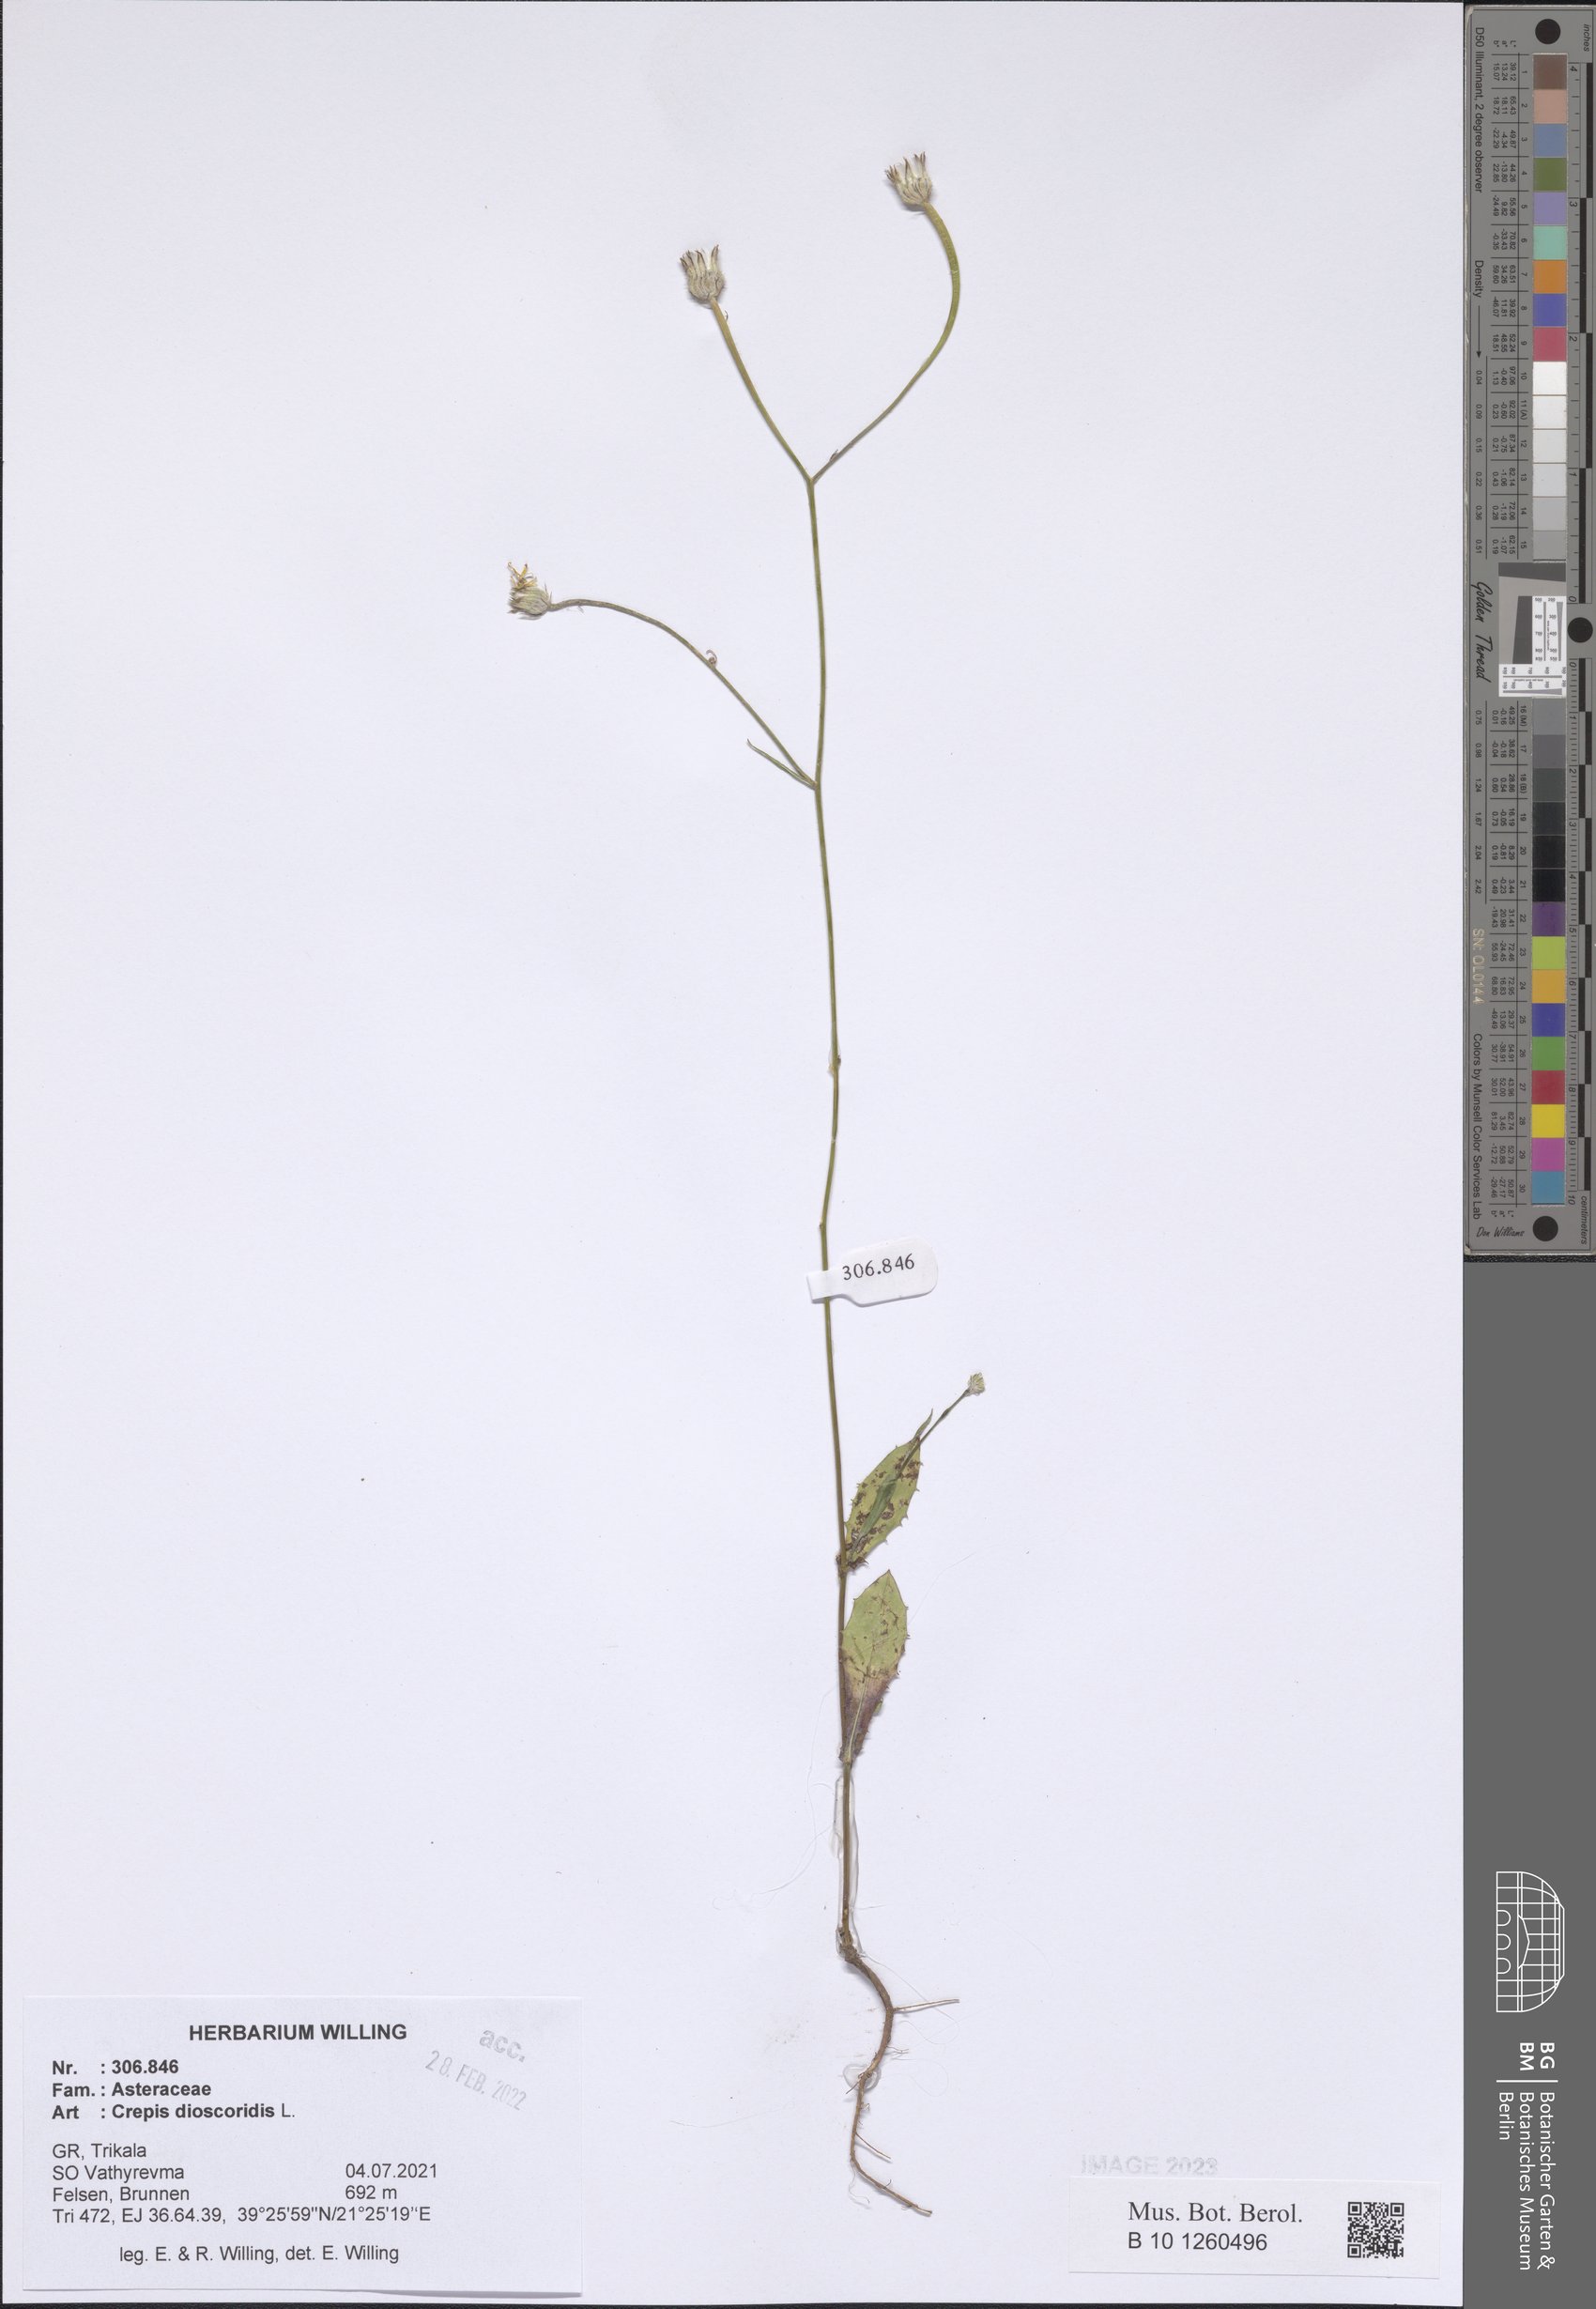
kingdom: Plantae
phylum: Tracheophyta
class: Magnoliopsida
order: Asterales
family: Asteraceae
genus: Crepis
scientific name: Crepis dioscoridis
